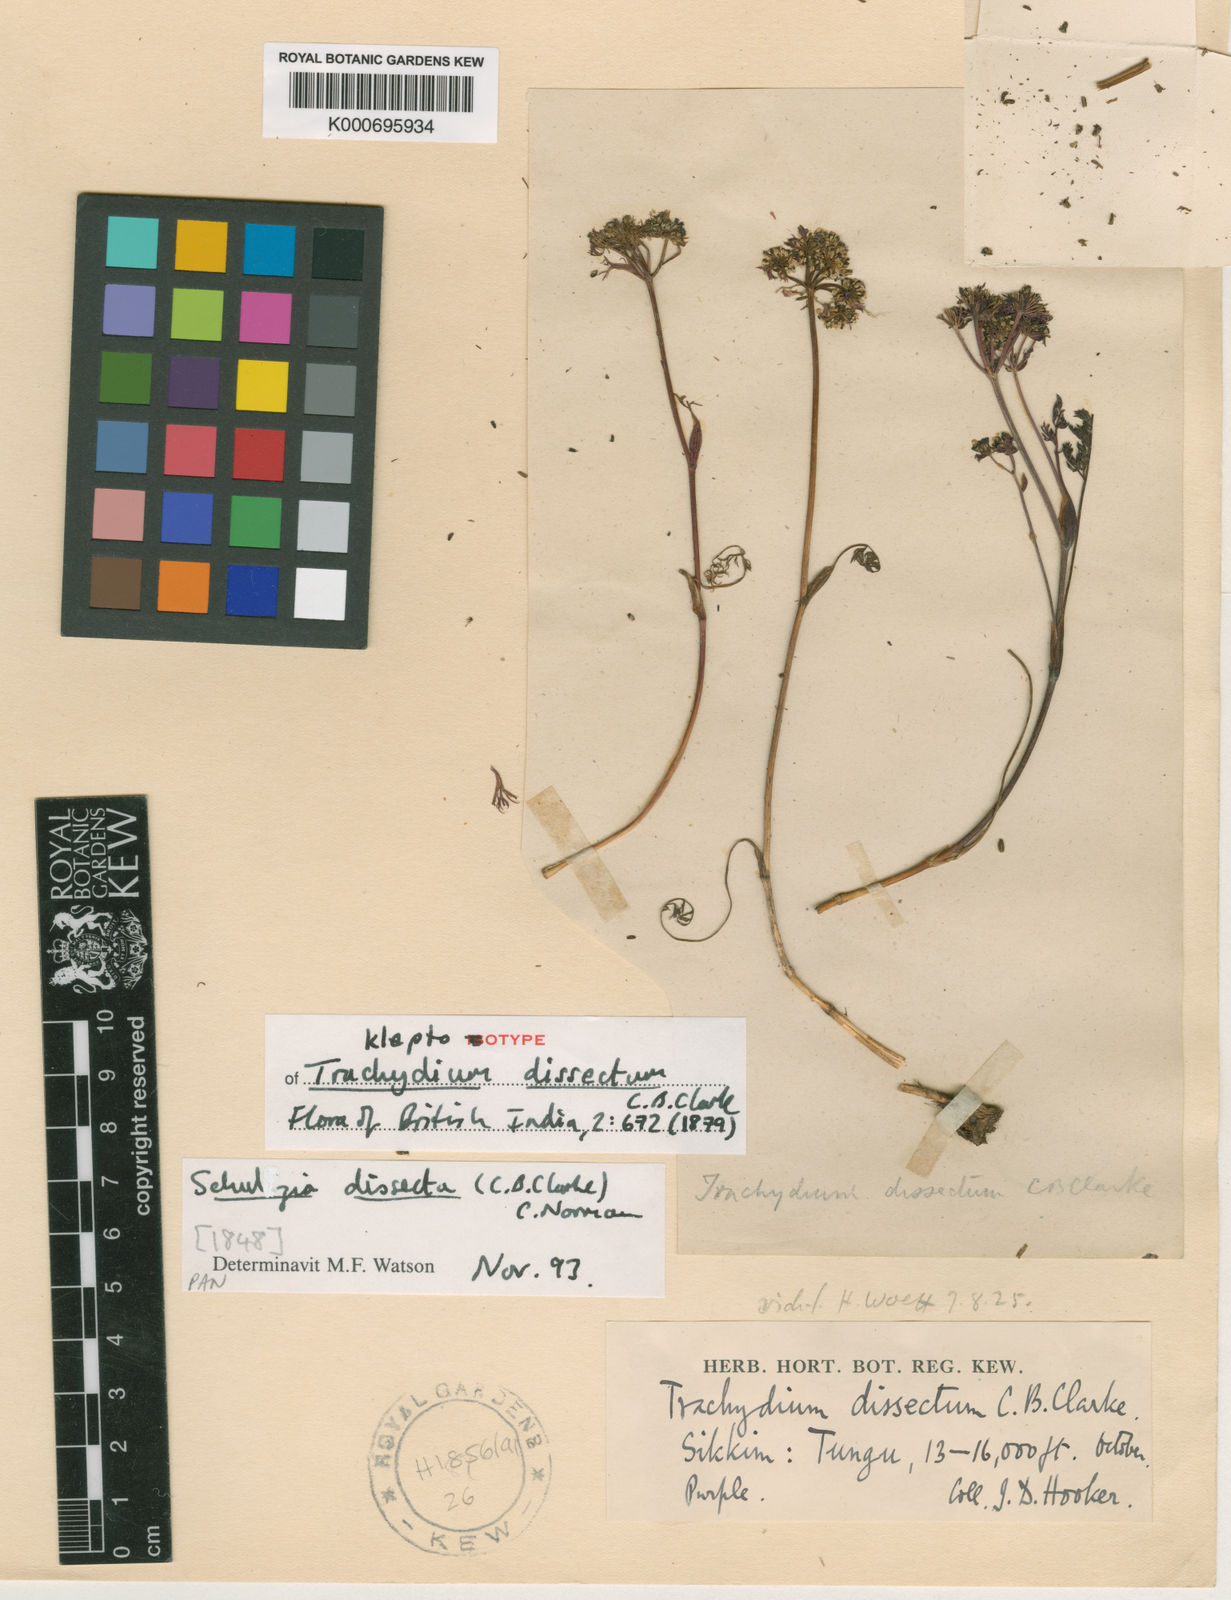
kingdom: Plantae
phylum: Tracheophyta
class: Magnoliopsida
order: Apiales
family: Apiaceae
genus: Schulzia
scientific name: Schulzia dissecta
